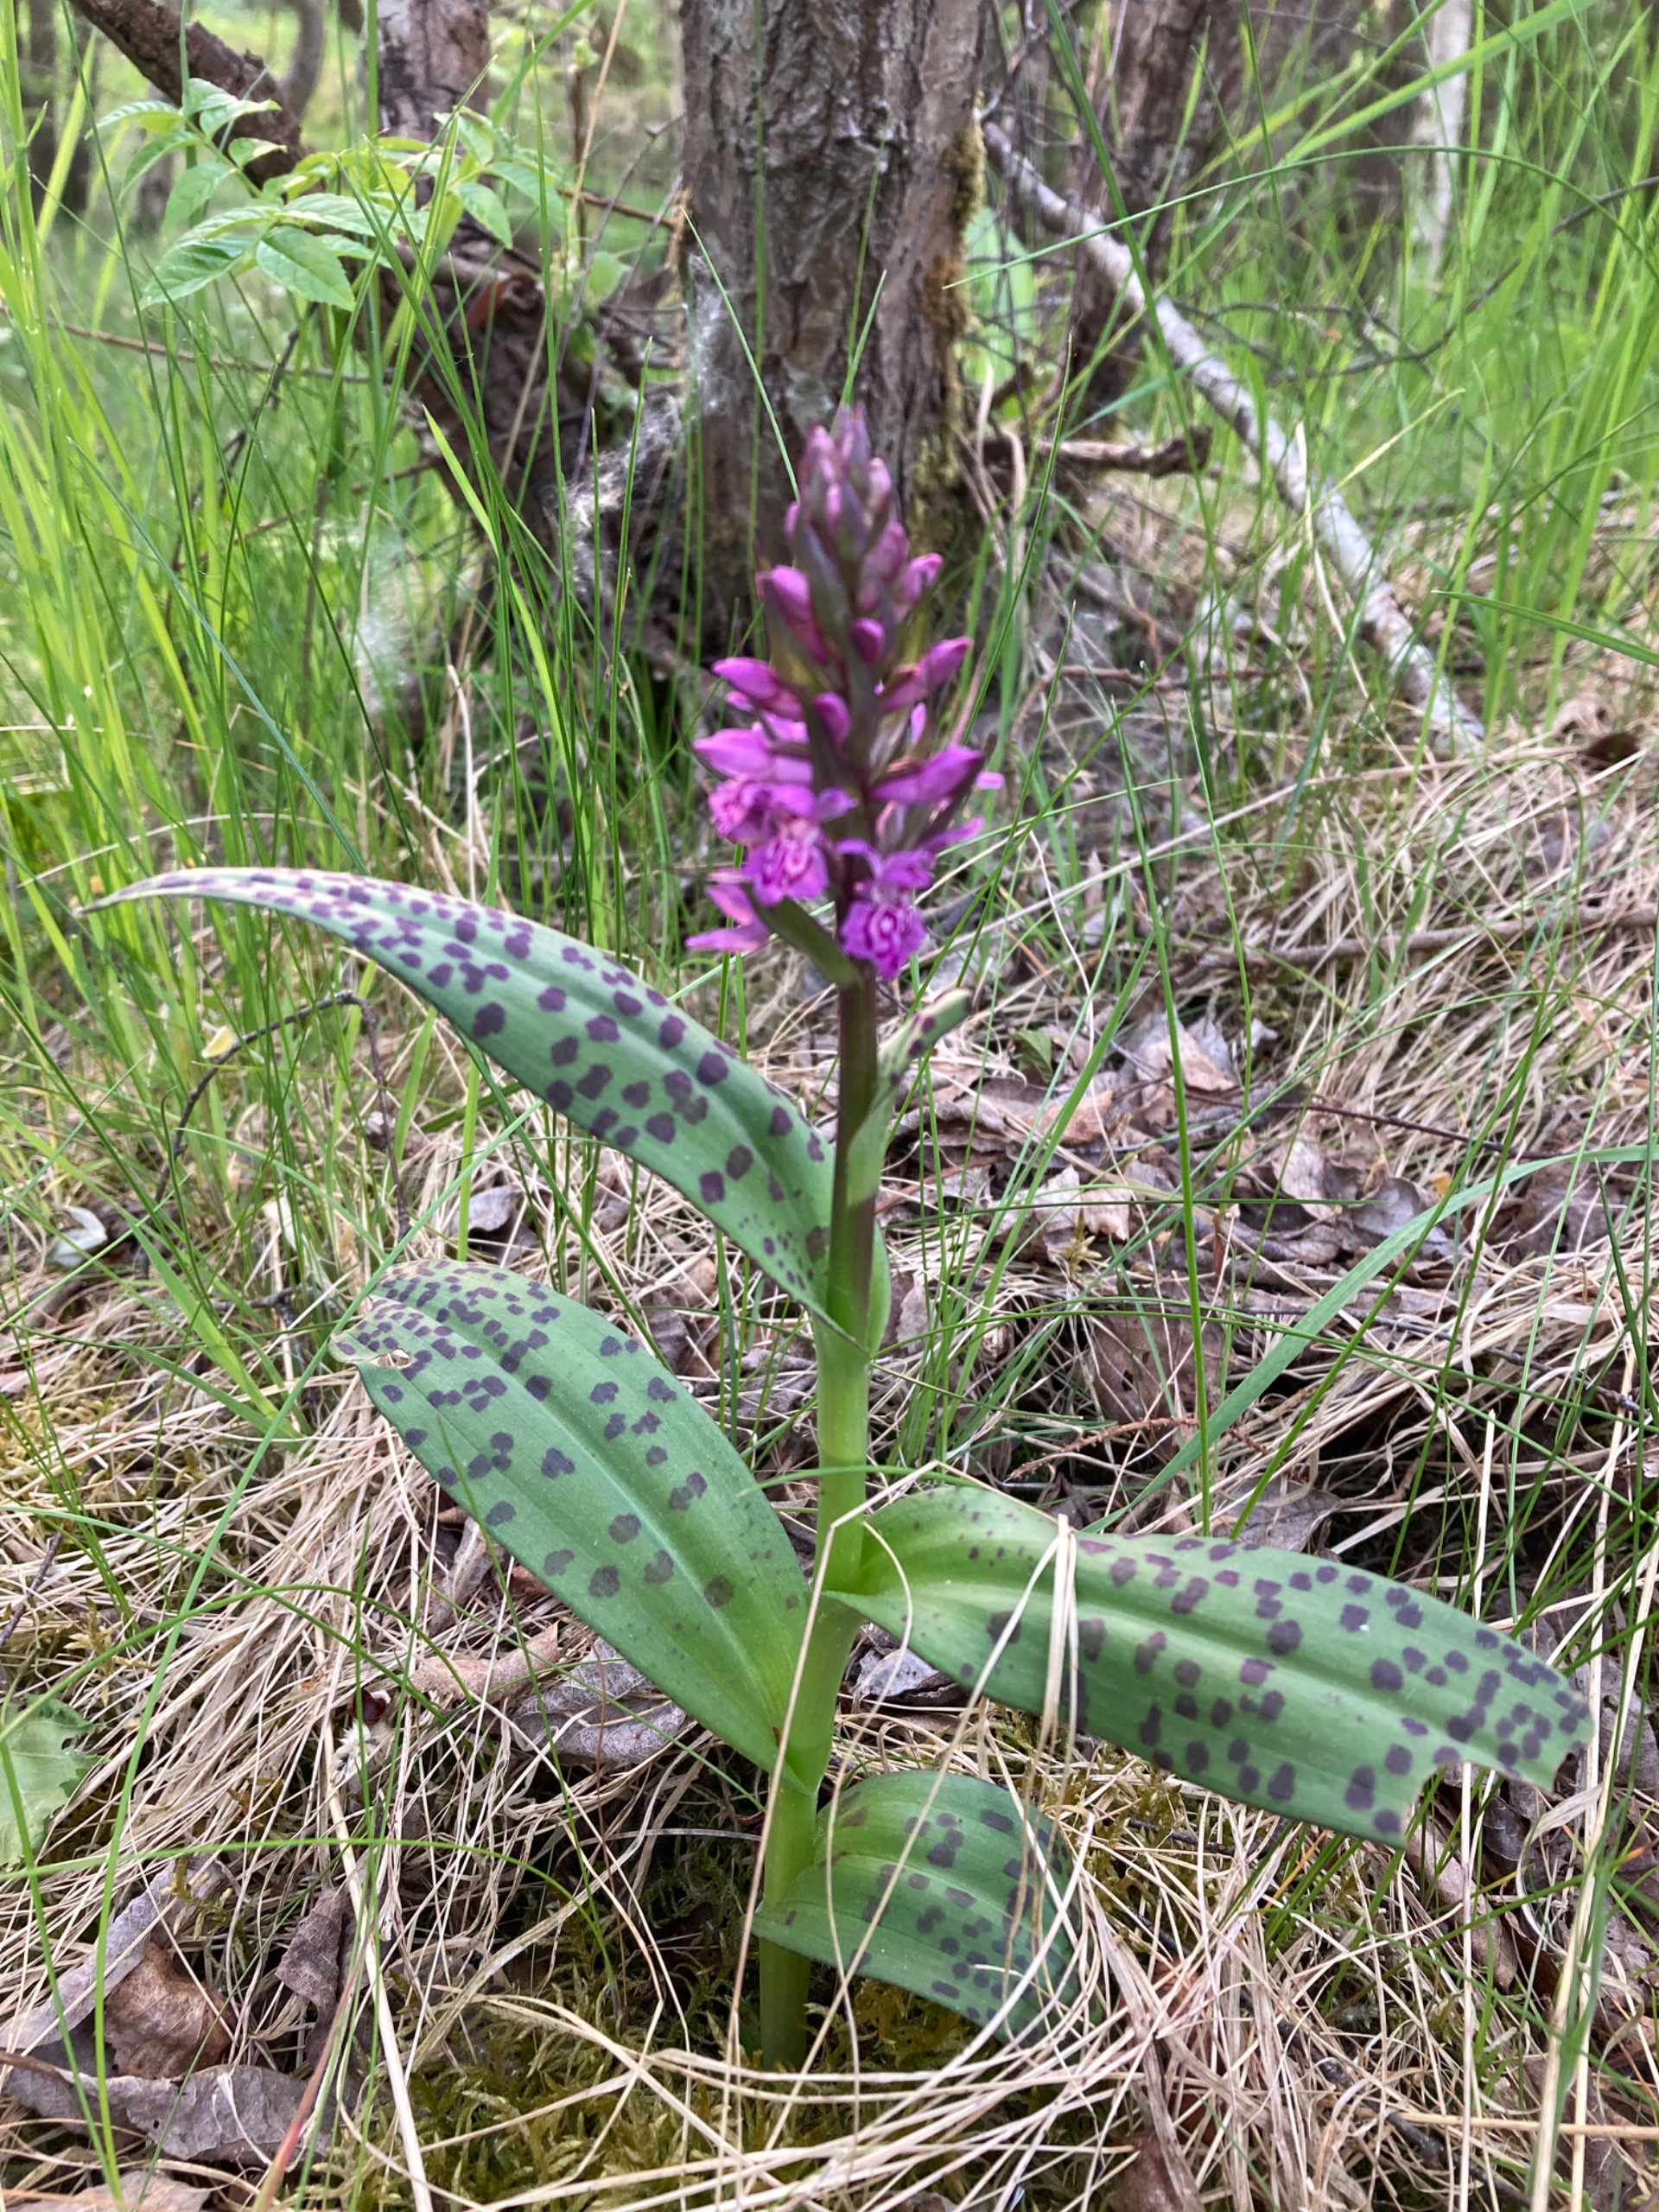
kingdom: Plantae
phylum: Tracheophyta
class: Liliopsida
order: Asparagales
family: Orchidaceae
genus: Dactylorhiza
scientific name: Dactylorhiza majalis
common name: Maj-gøgeurt
